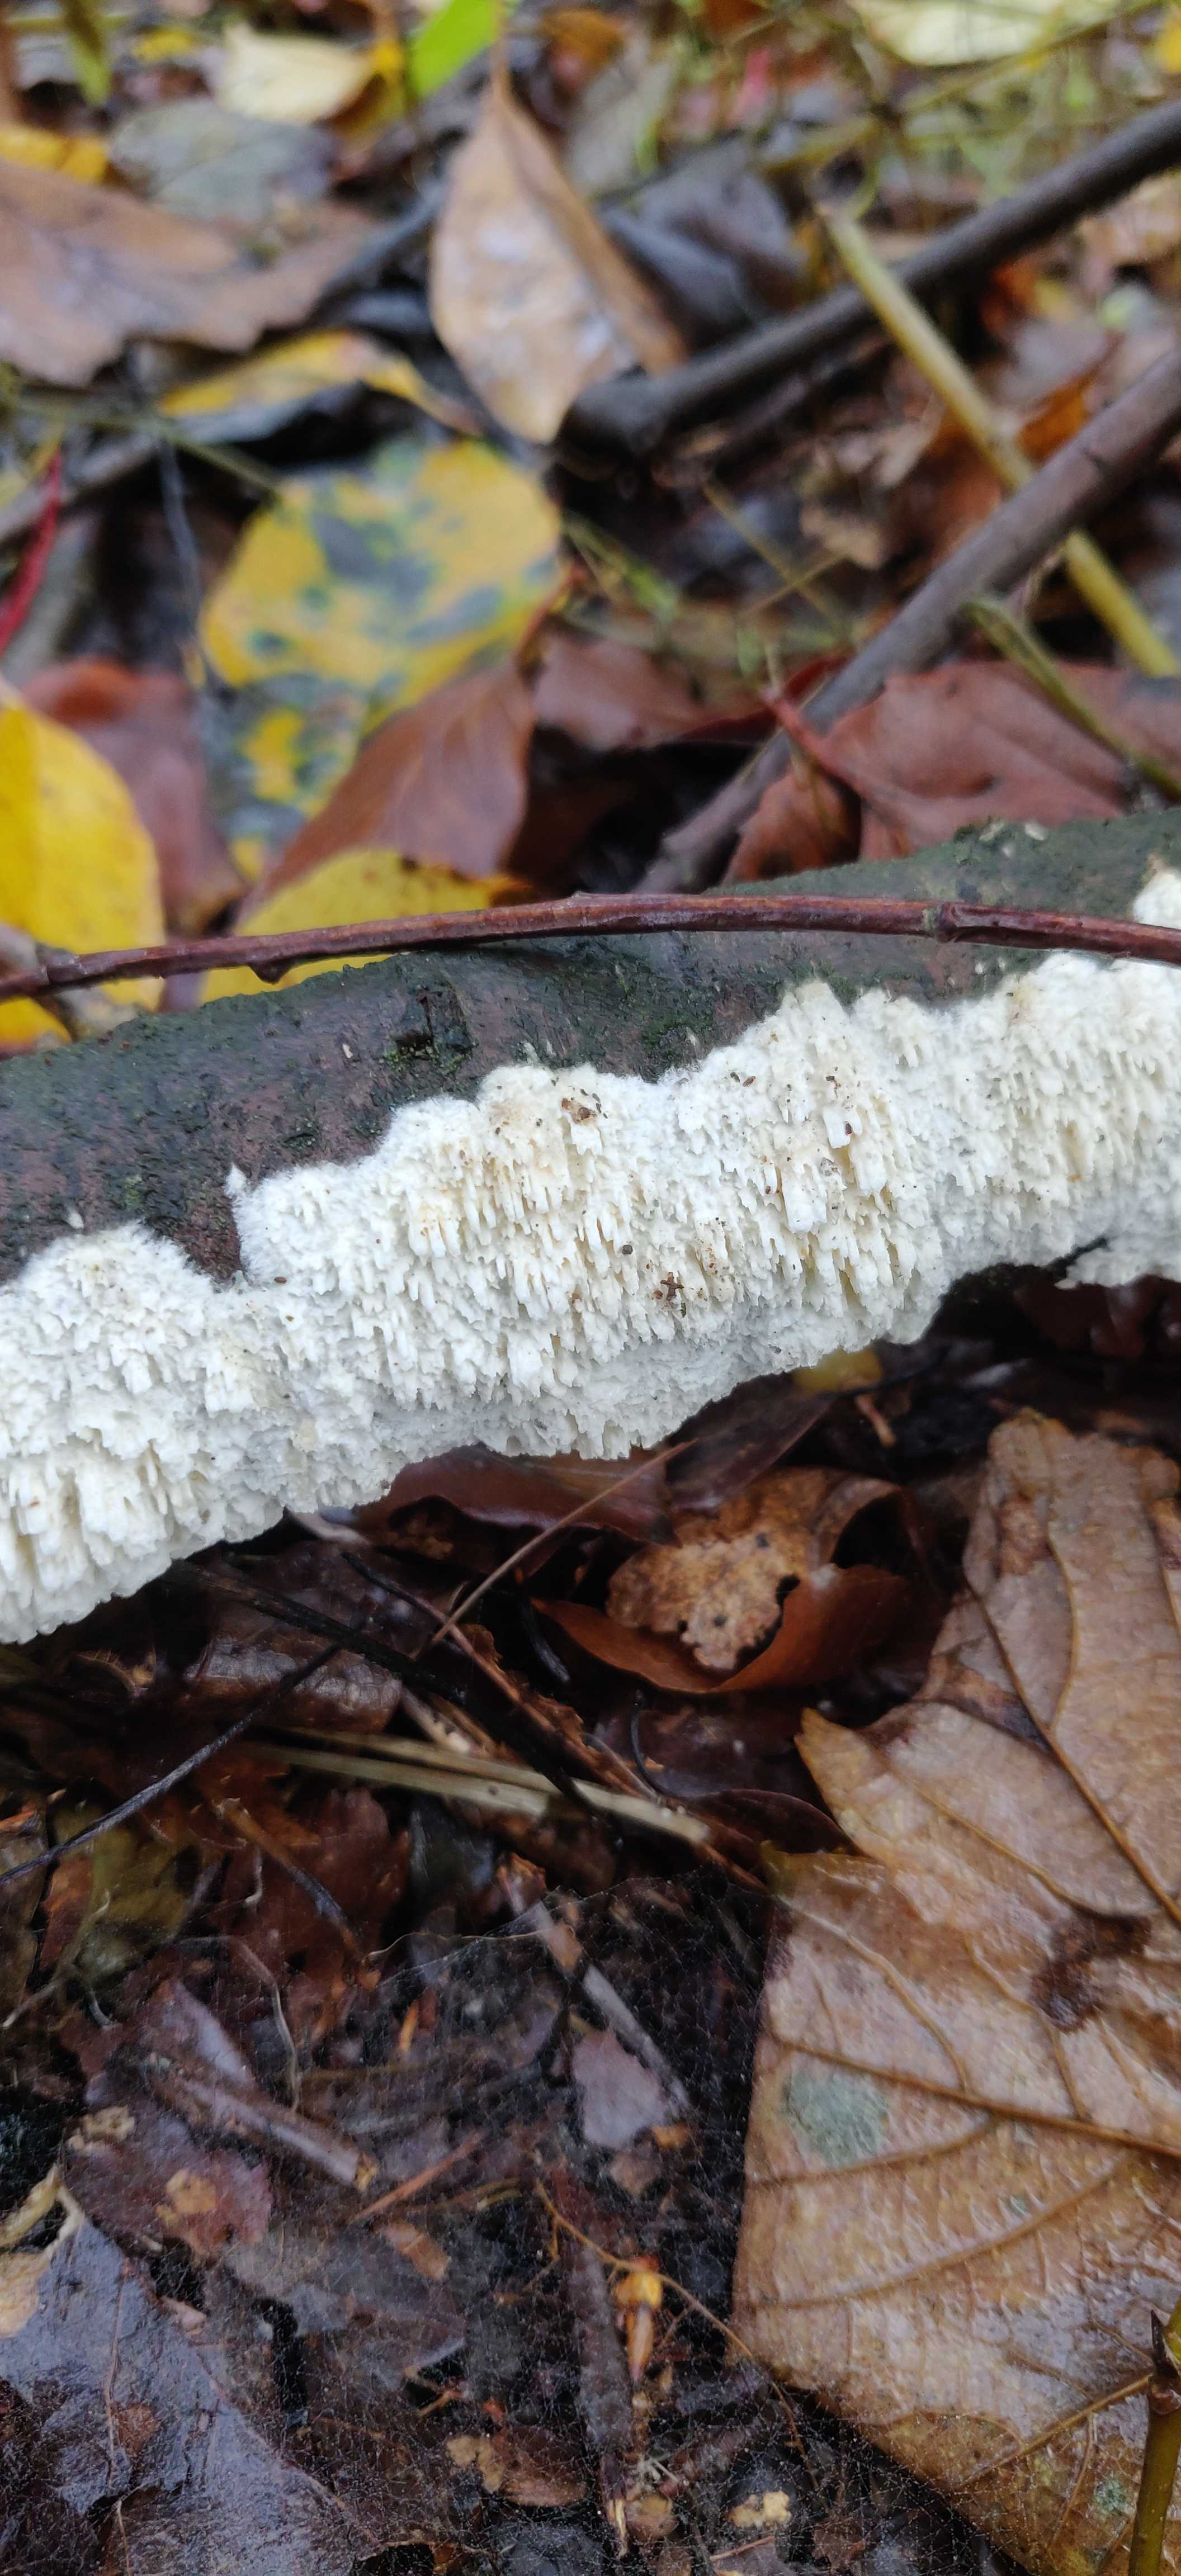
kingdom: Fungi
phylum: Basidiomycota
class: Agaricomycetes
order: Hymenochaetales
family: Schizoporaceae
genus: Xylodon
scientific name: Xylodon radula
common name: grovtandet kalkskind
